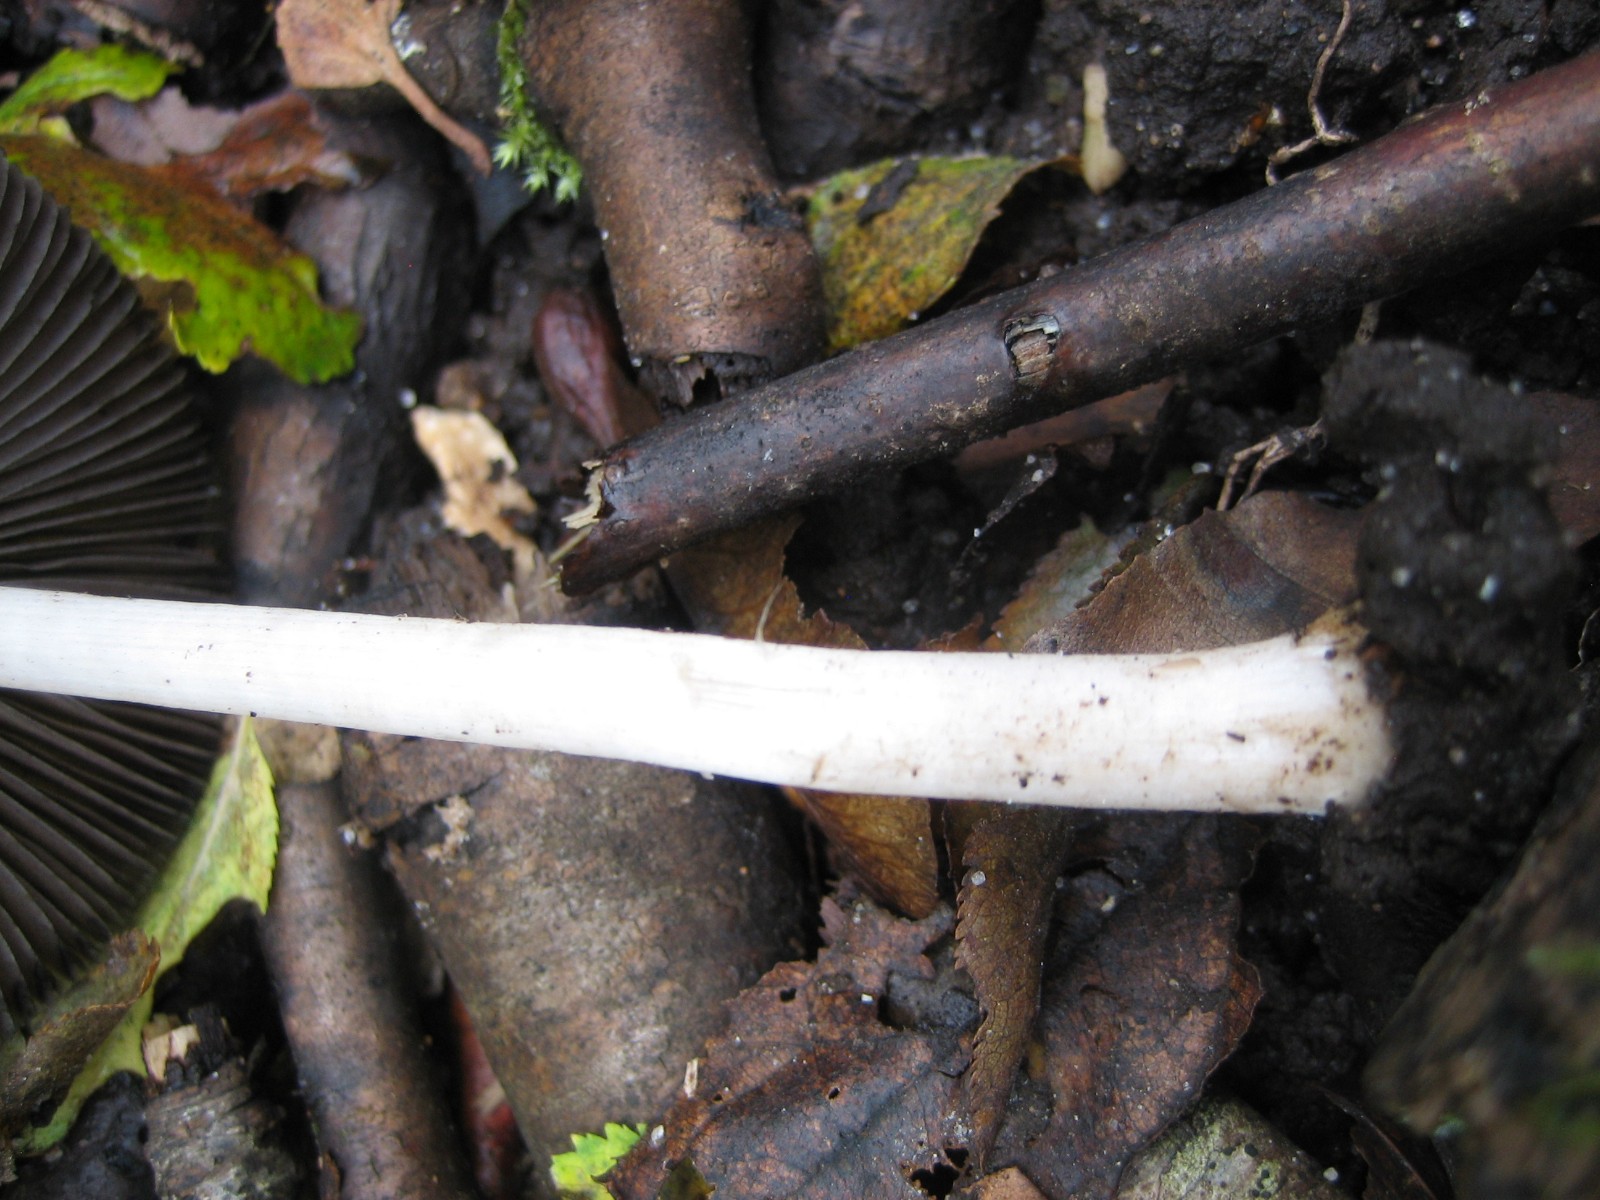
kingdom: Fungi
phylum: Basidiomycota
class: Agaricomycetes
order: Agaricales
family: Psathyrellaceae
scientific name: Psathyrellaceae
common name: mørkhatfamilien
